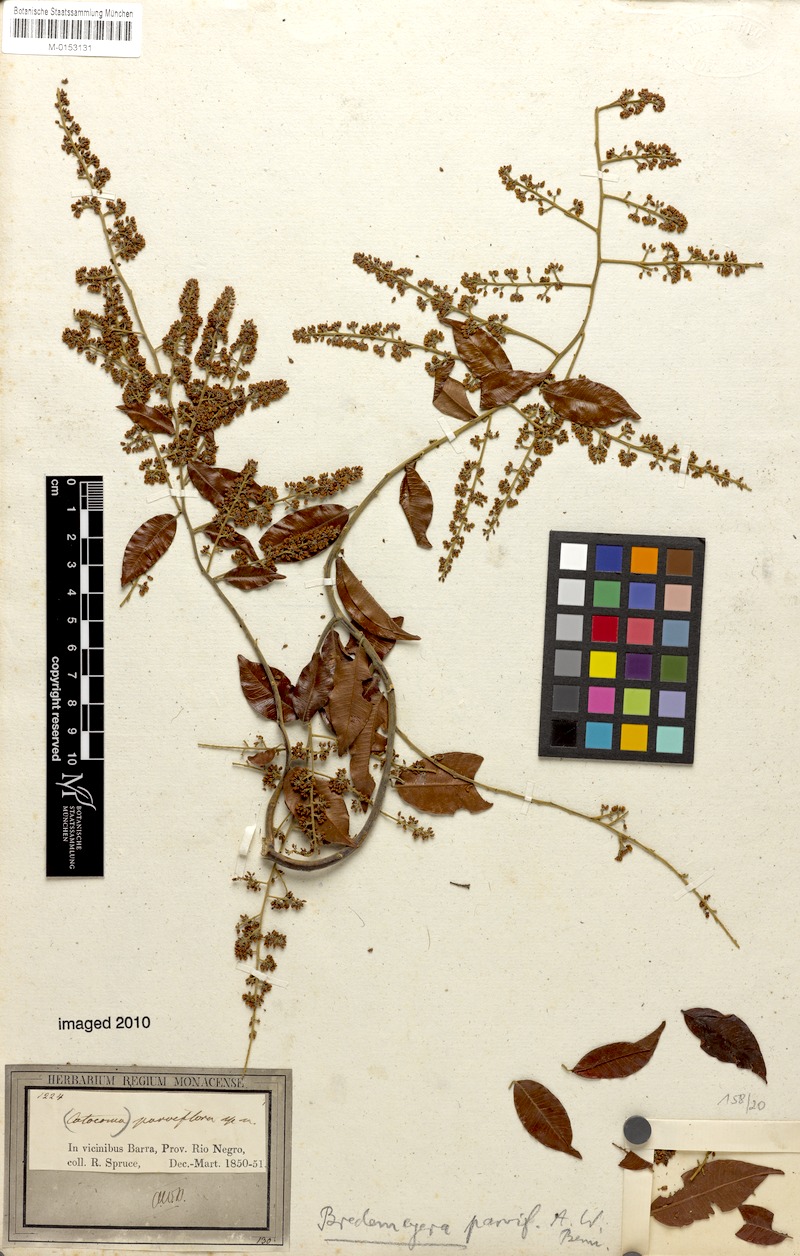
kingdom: Plantae
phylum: Tracheophyta
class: Magnoliopsida
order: Fabales
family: Polygalaceae
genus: Bredemeyera
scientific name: Bredemeyera myrtifolia
